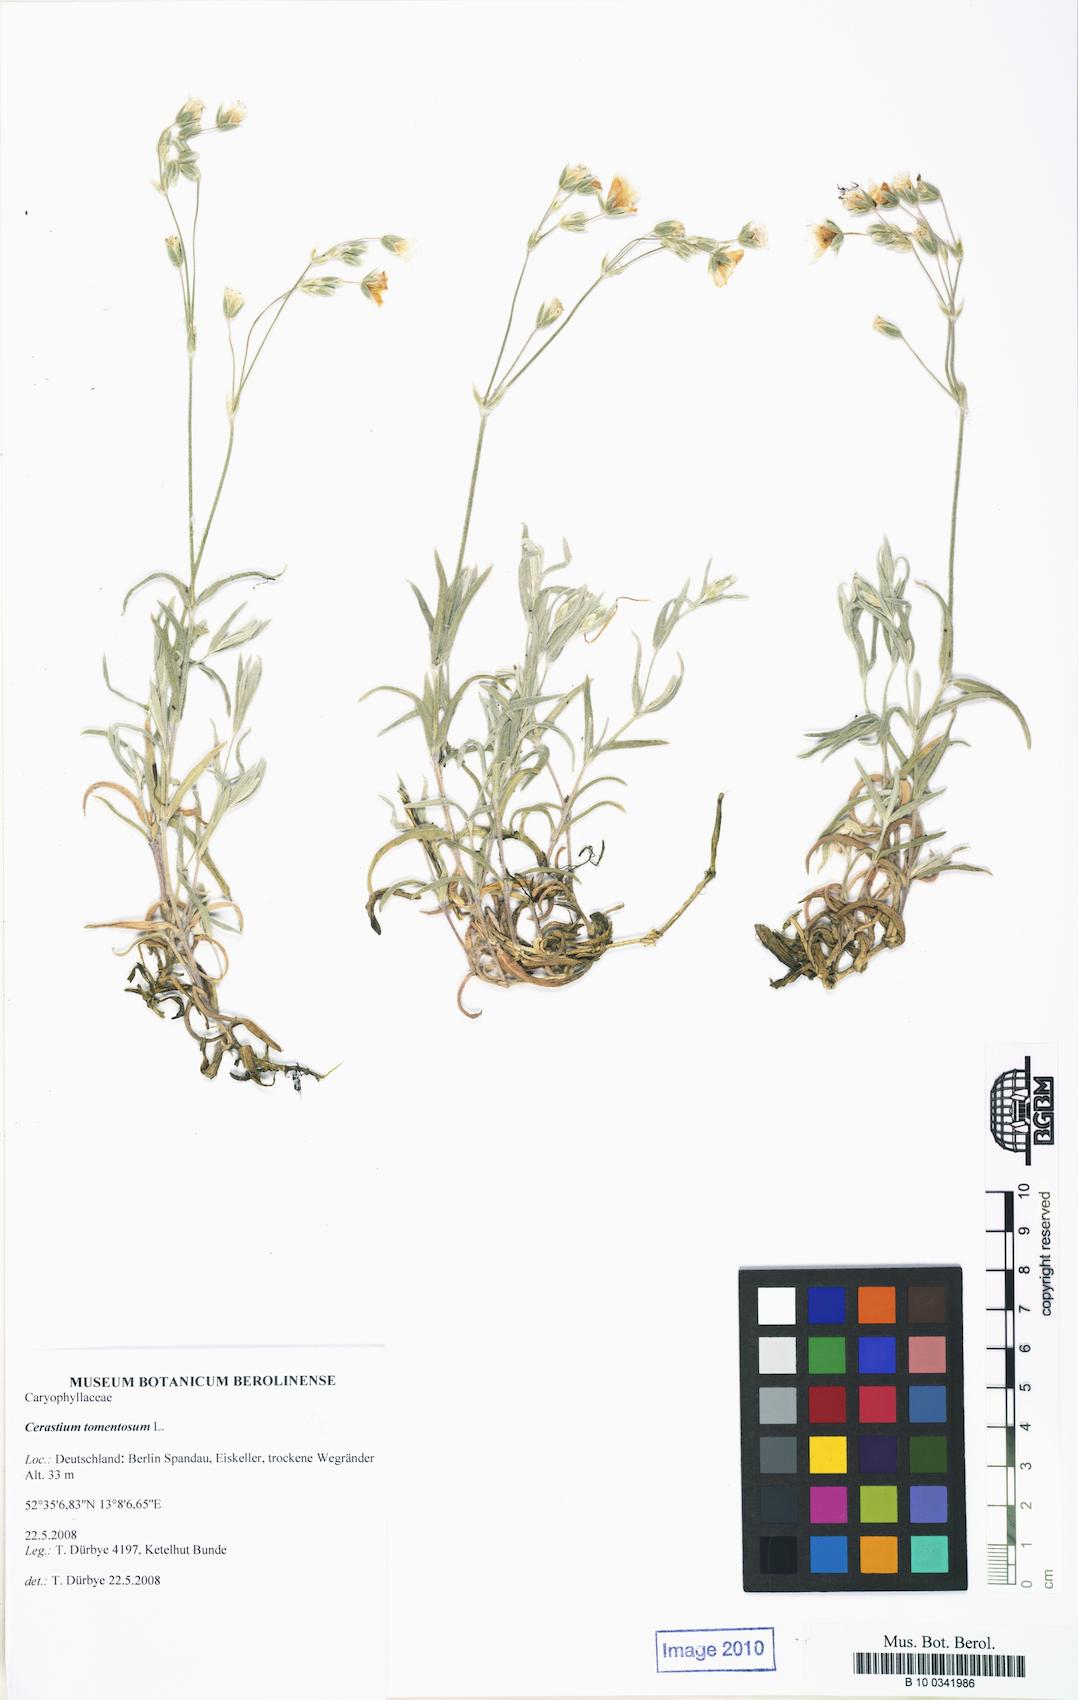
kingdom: Plantae
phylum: Tracheophyta
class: Magnoliopsida
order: Caryophyllales
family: Caryophyllaceae
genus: Cerastium
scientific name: Cerastium tomentosum
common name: Snow-in-summer
